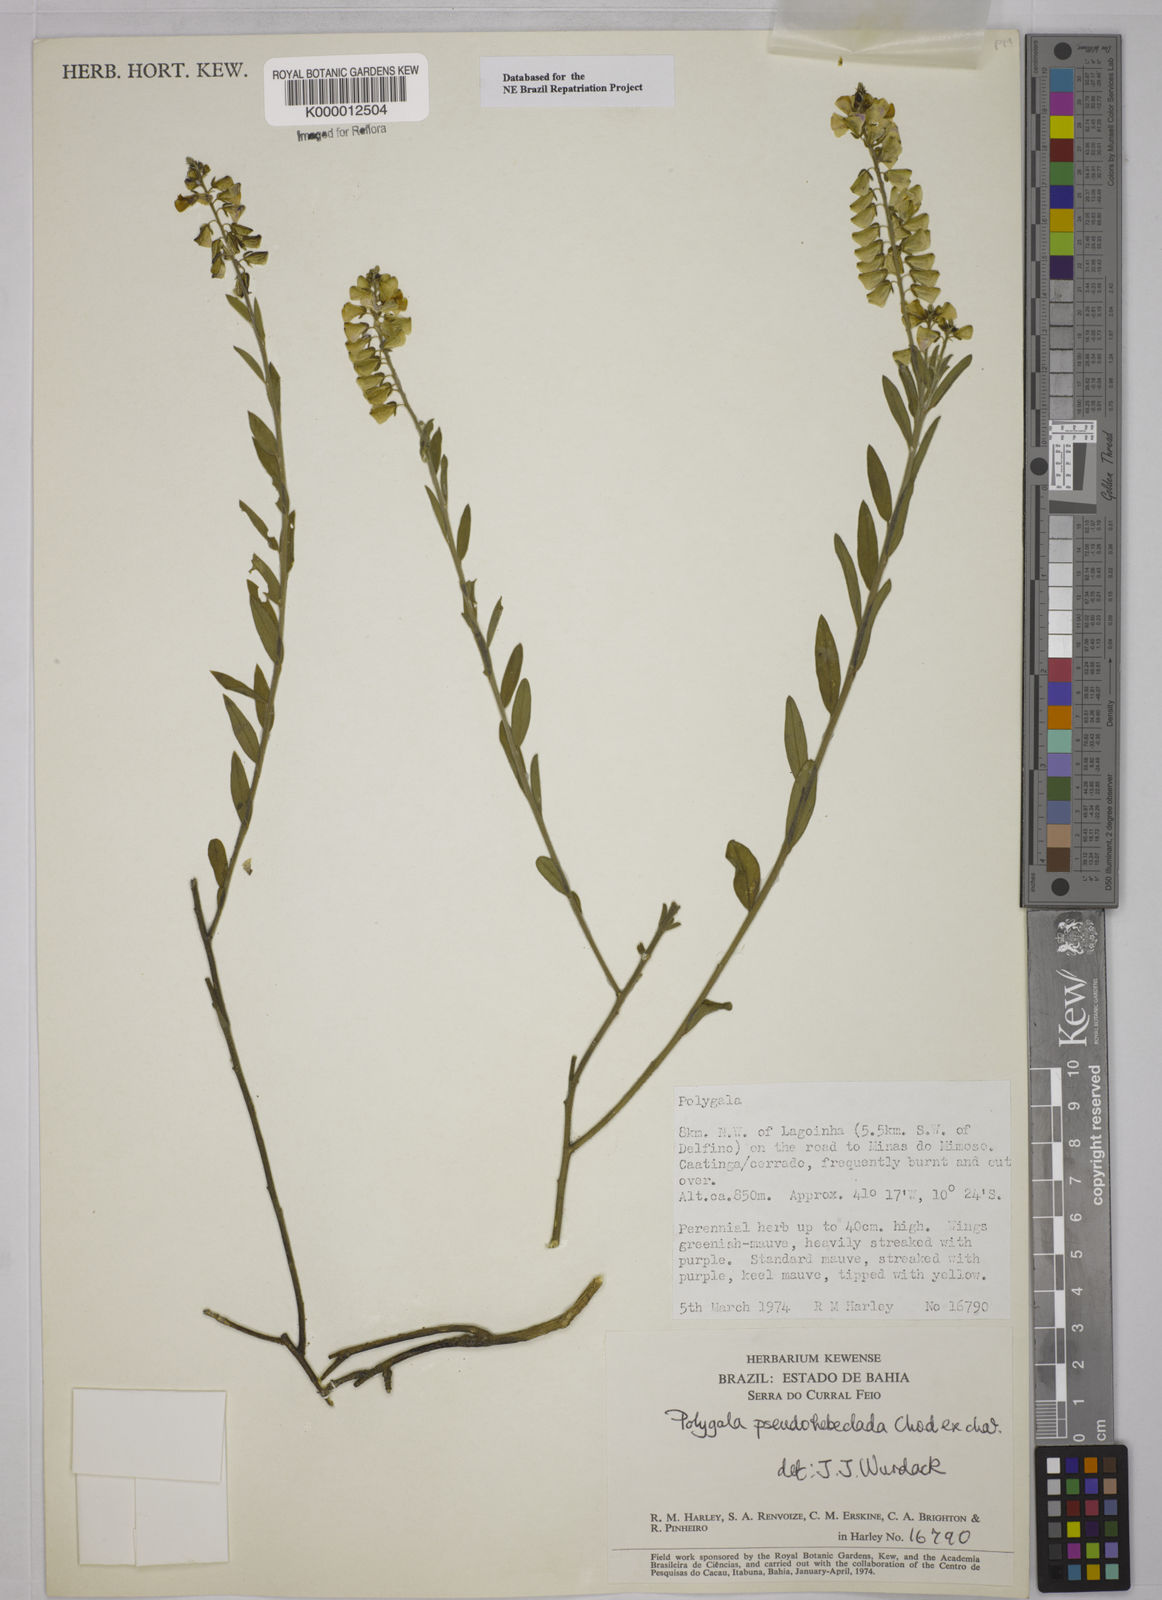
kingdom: Plantae
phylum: Tracheophyta
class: Magnoliopsida
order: Fabales
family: Polygalaceae
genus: Asemeia
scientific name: Asemeia pseudohebeclada
